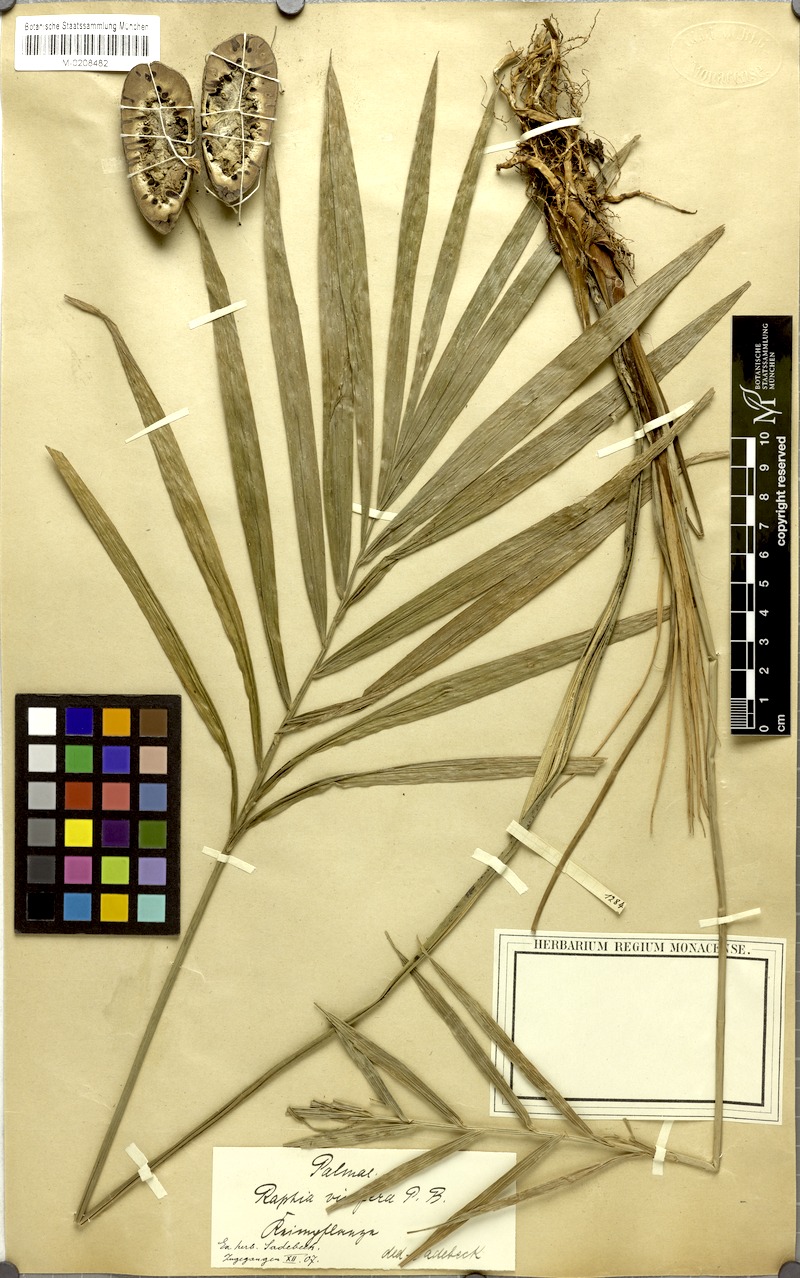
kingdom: Plantae
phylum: Tracheophyta
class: Liliopsida
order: Arecales
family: Arecaceae
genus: Raphia
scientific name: Raphia vinifera
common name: Raphia palm
